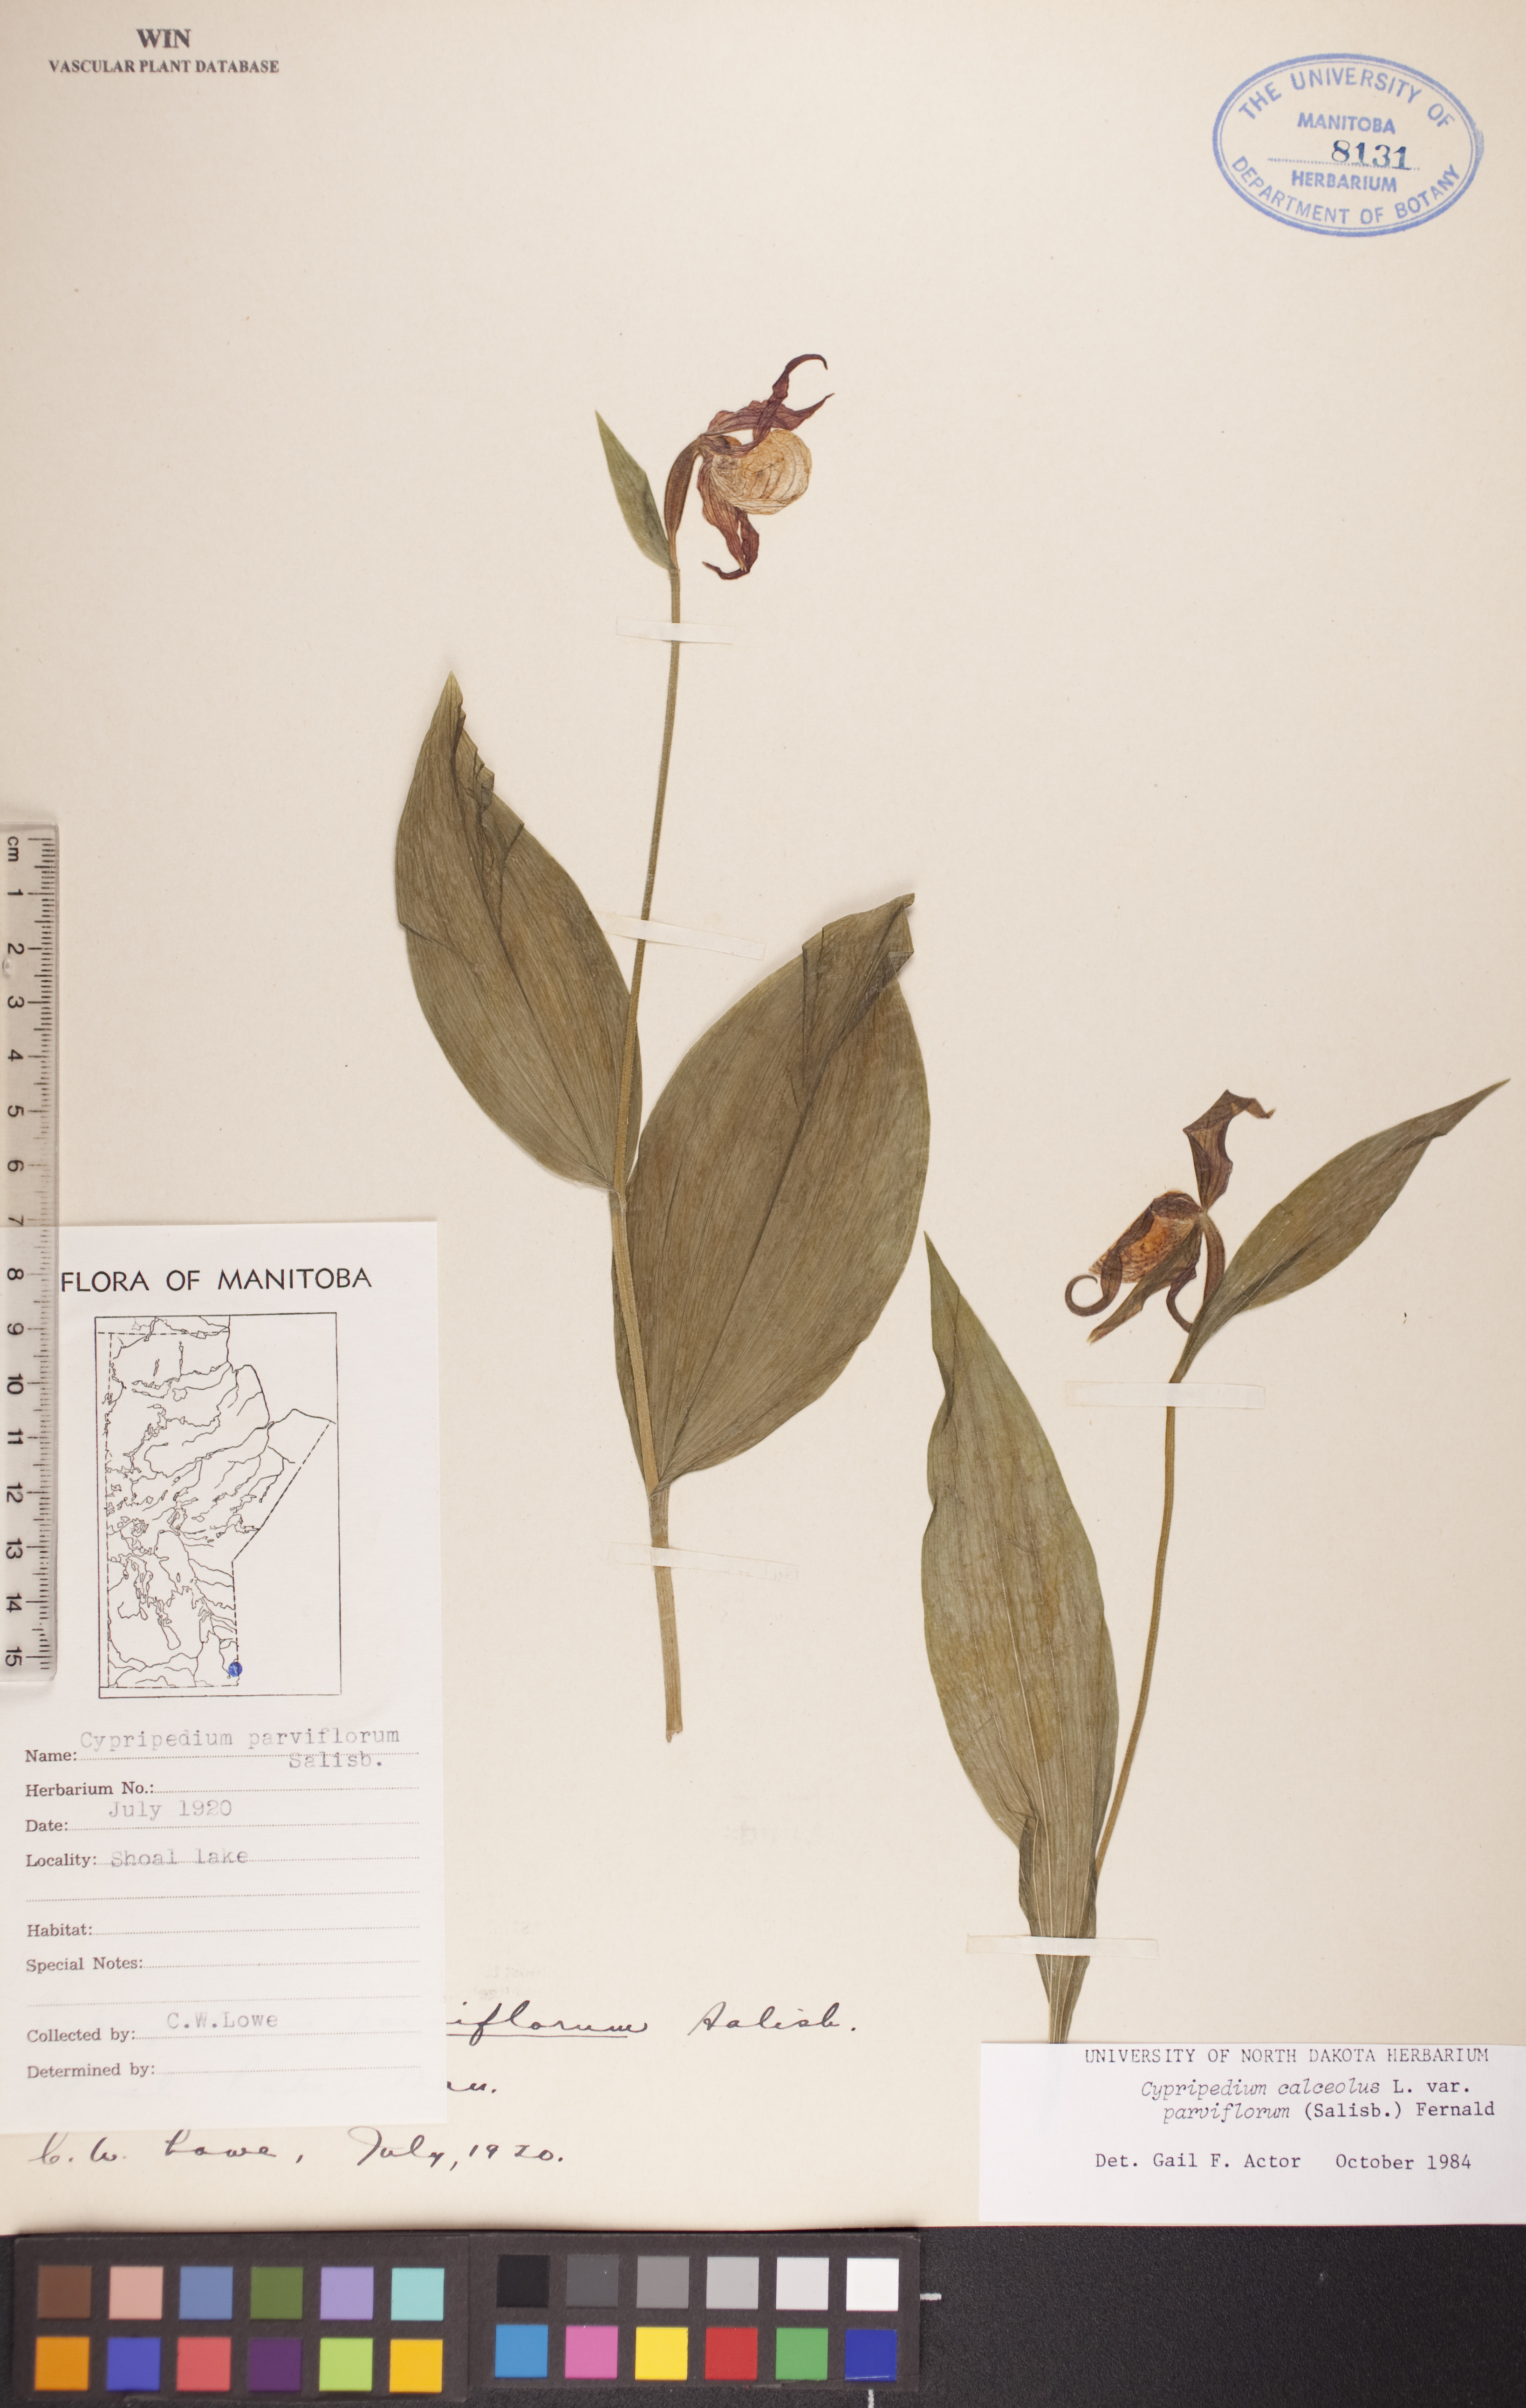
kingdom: Plantae
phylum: Tracheophyta
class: Liliopsida
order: Asparagales
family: Orchidaceae
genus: Cypripedium
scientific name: Cypripedium parviflorum
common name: American yellow lady's-slipper
